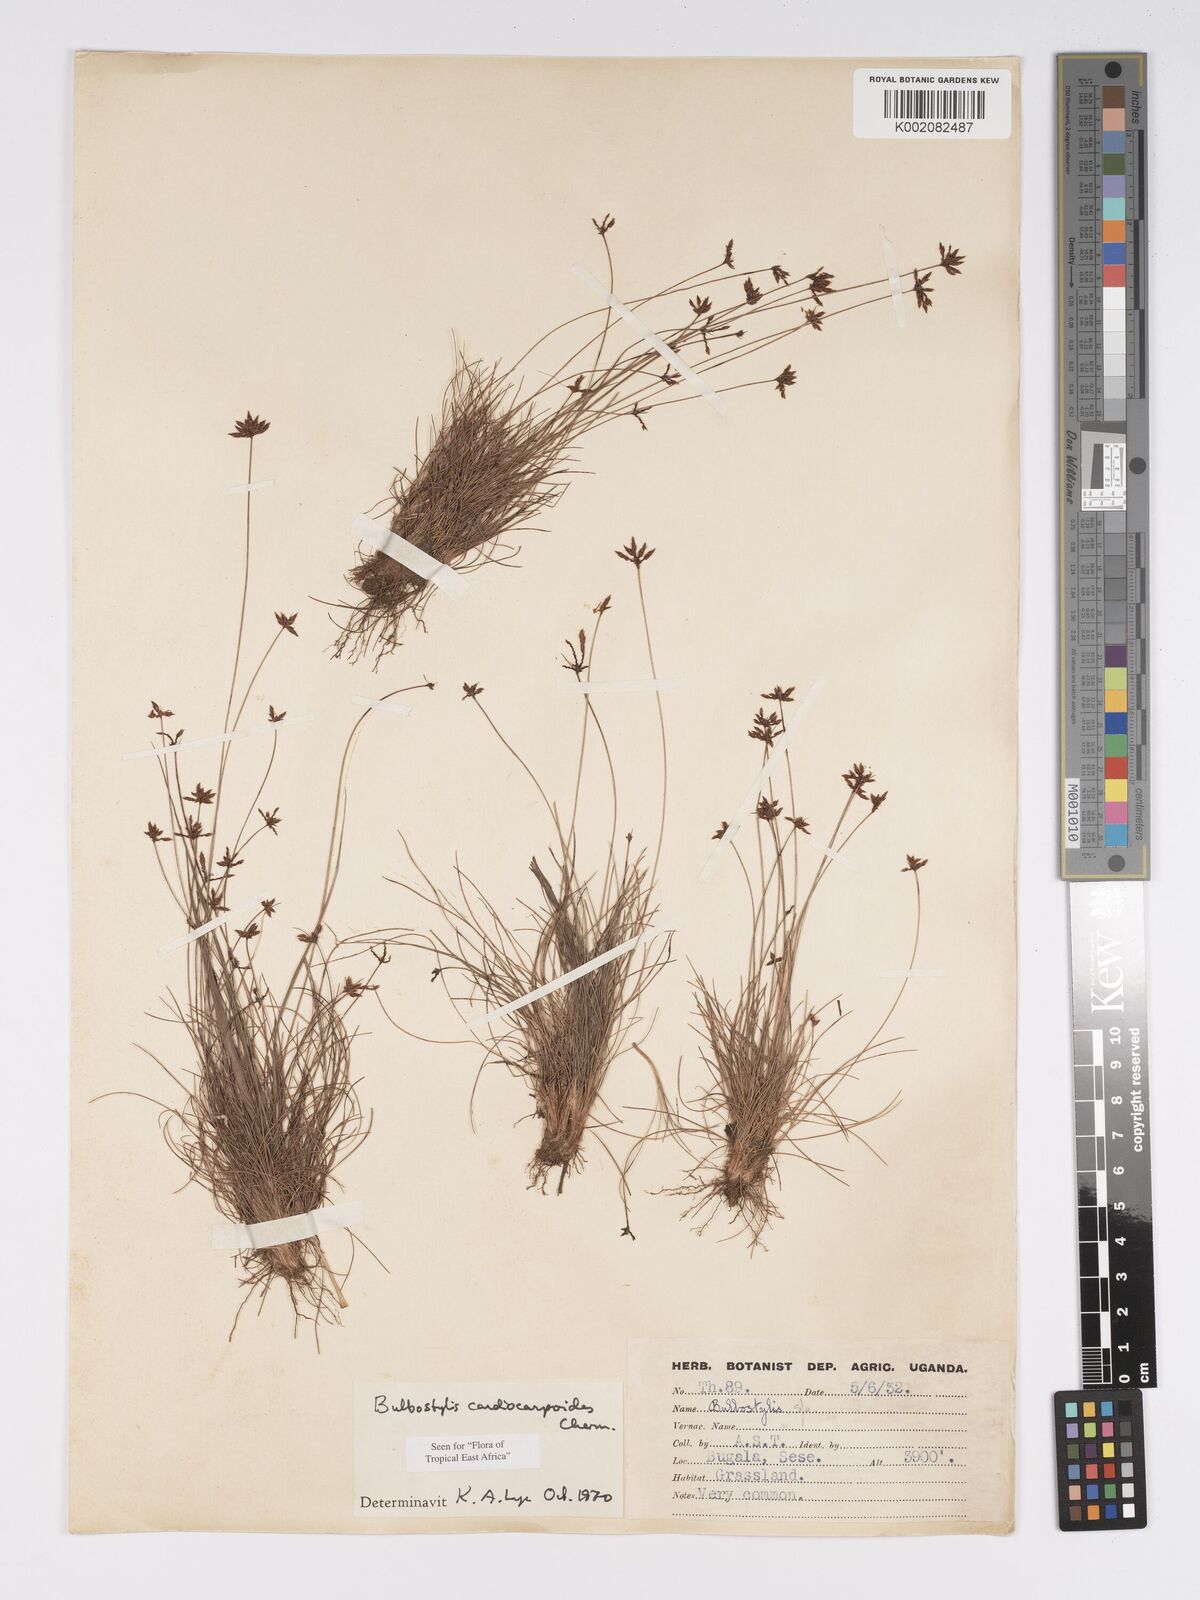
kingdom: Plantae
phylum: Tracheophyta
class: Liliopsida
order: Poales
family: Cyperaceae
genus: Bulbostylis
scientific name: Bulbostylis cardiocarpoides
